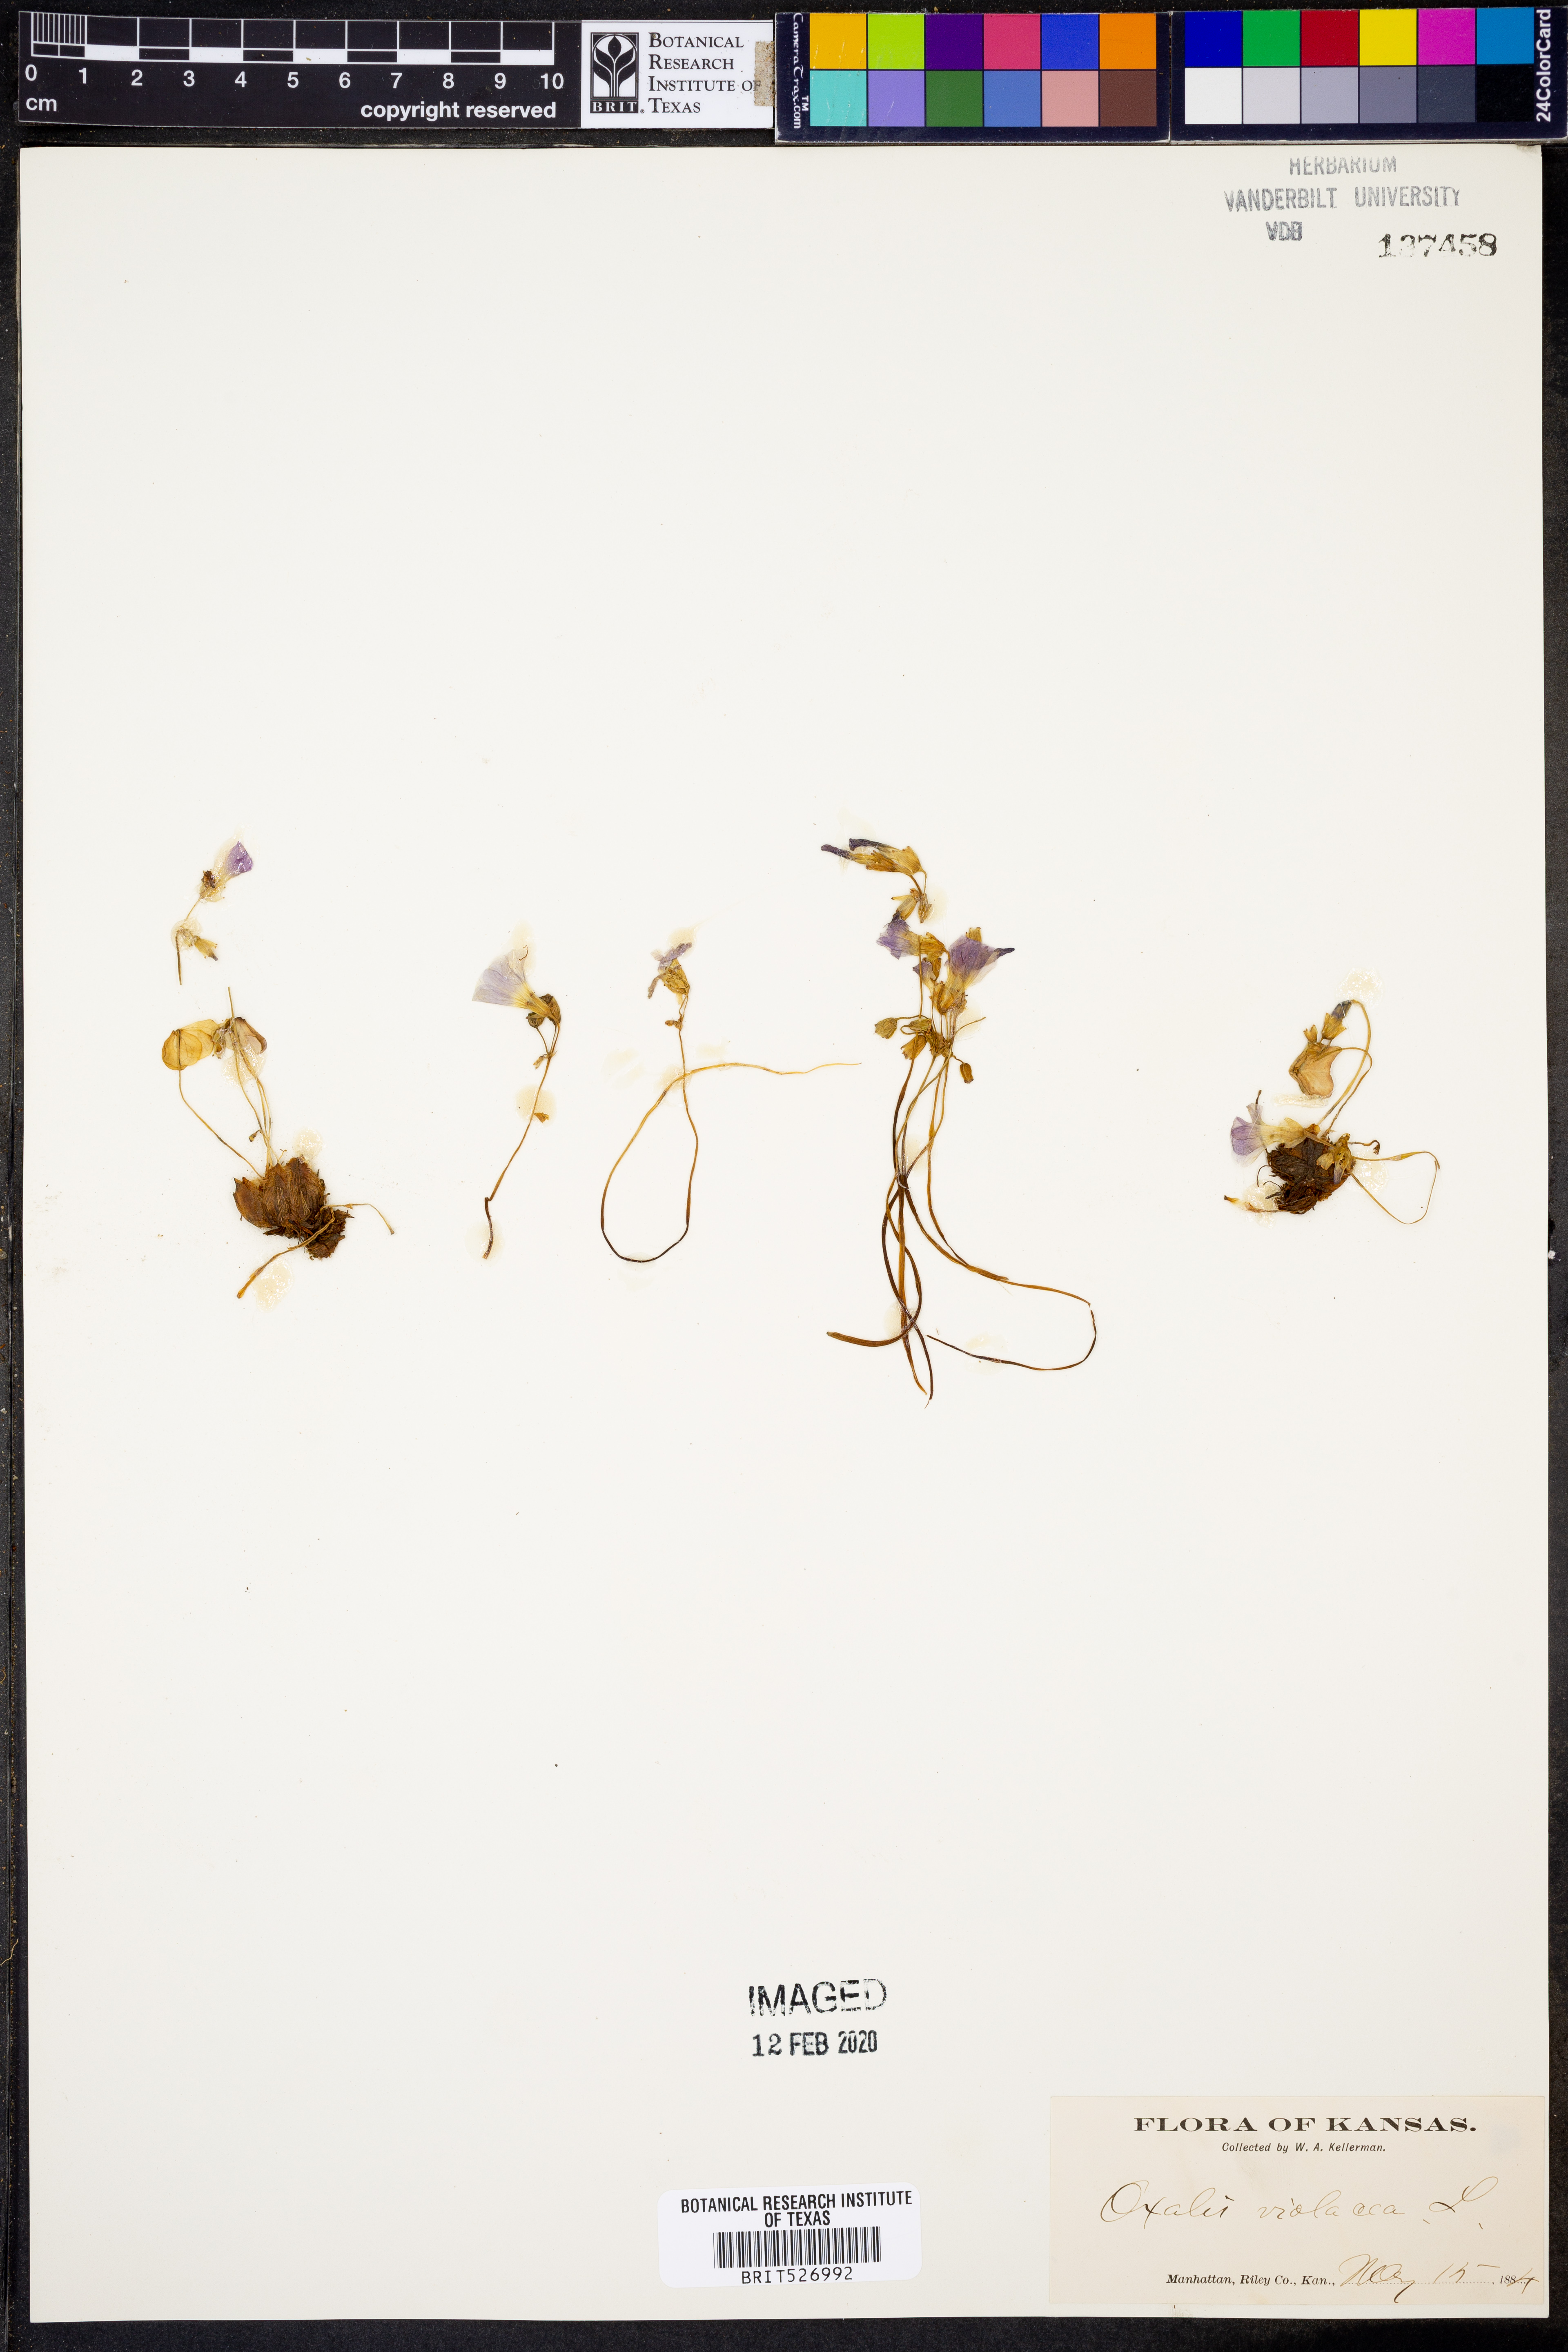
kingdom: Plantae
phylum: Tracheophyta
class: Magnoliopsida
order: Oxalidales
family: Oxalidaceae
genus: Oxalis
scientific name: Oxalis violacea
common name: Violet wood-sorrel
